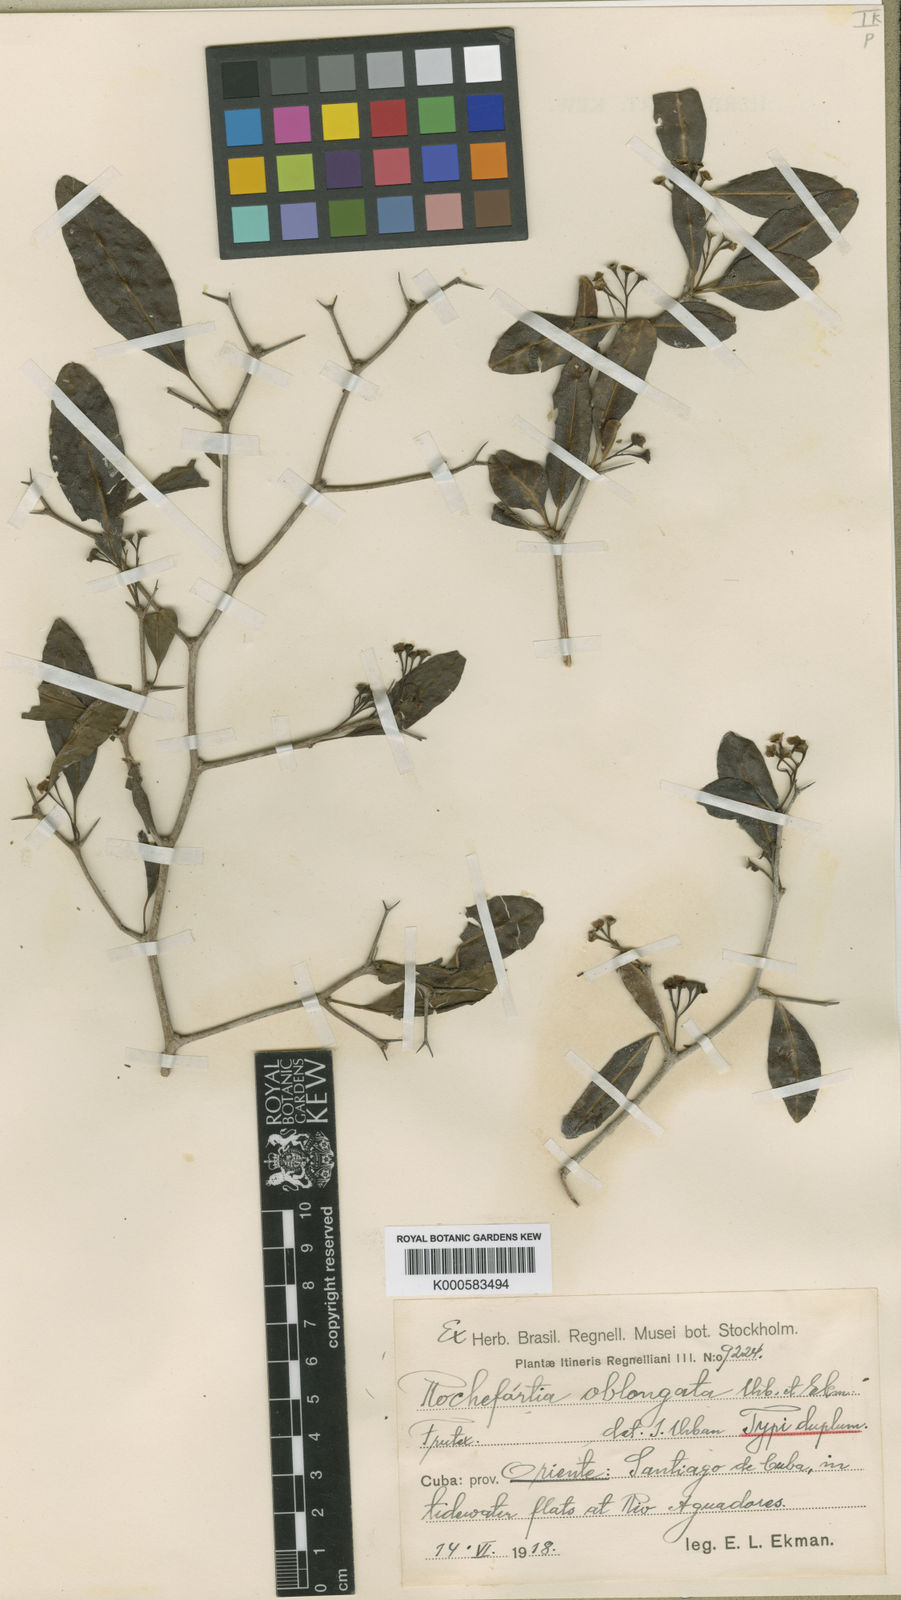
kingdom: Plantae
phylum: Tracheophyta
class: Magnoliopsida
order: Boraginales
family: Ehretiaceae
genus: Rochefortia
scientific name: Rochefortia oblongata
